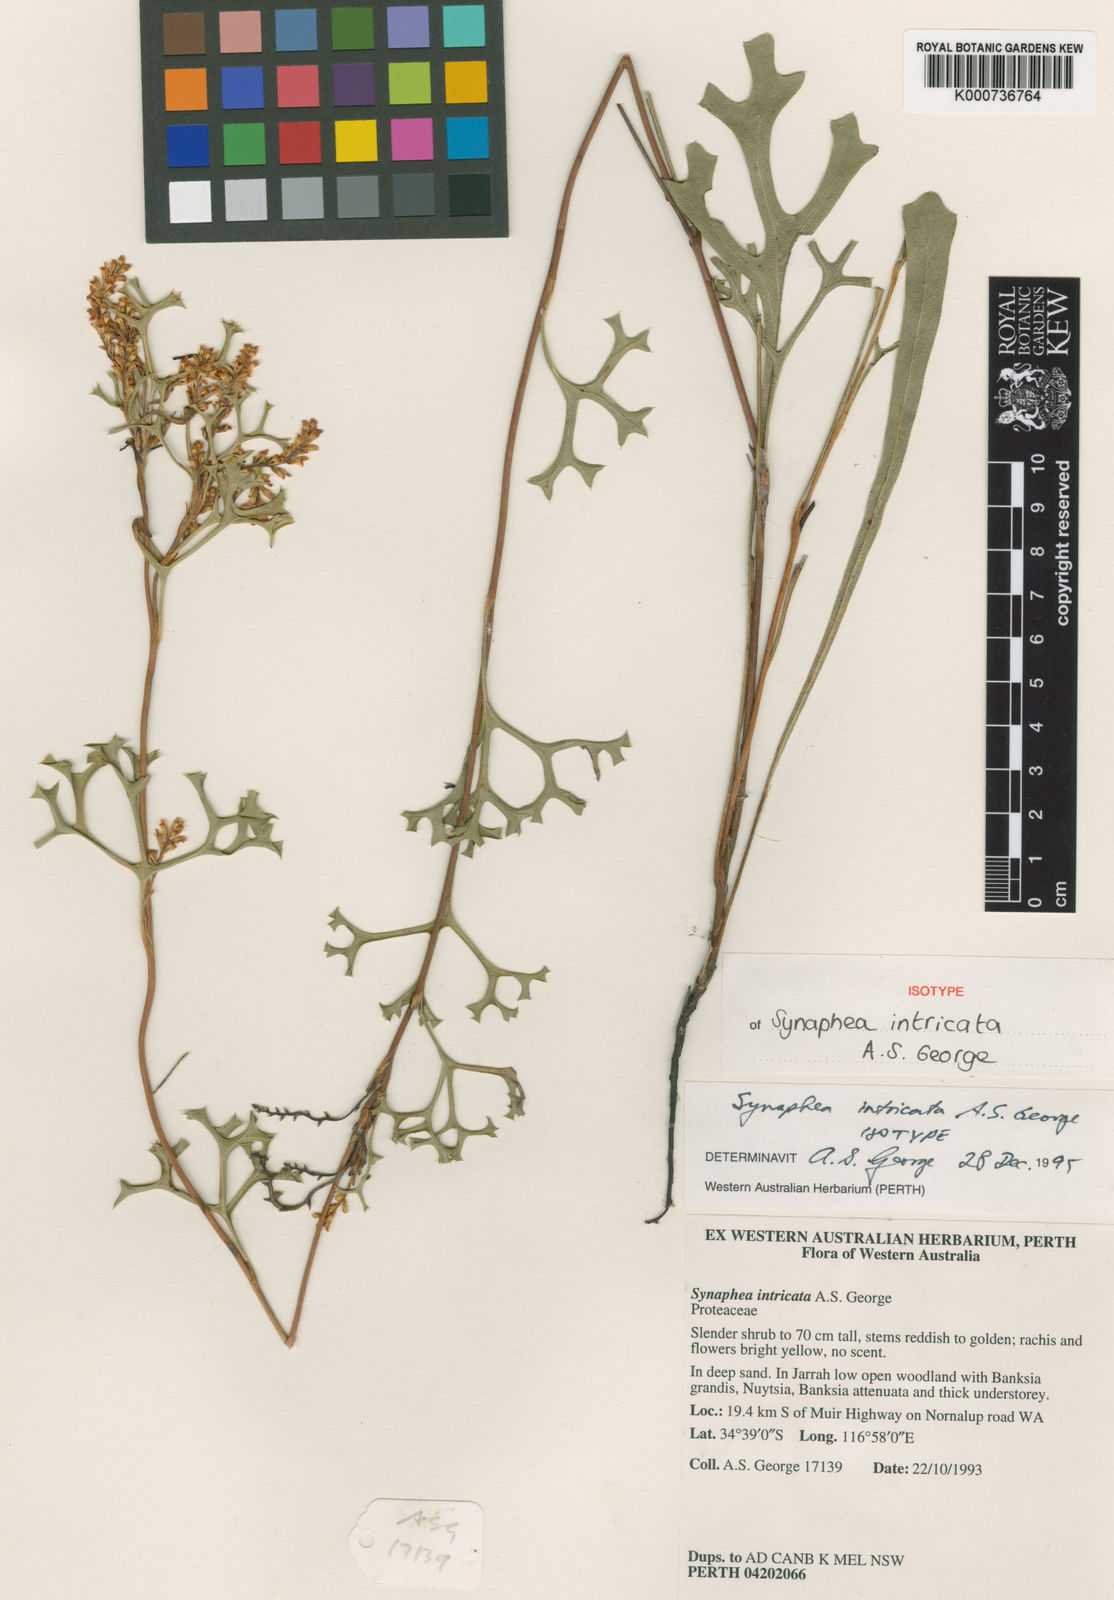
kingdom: Plantae
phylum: Tracheophyta
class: Magnoliopsida
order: Proteales
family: Proteaceae
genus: Synaphea
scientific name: Synaphea intricata
